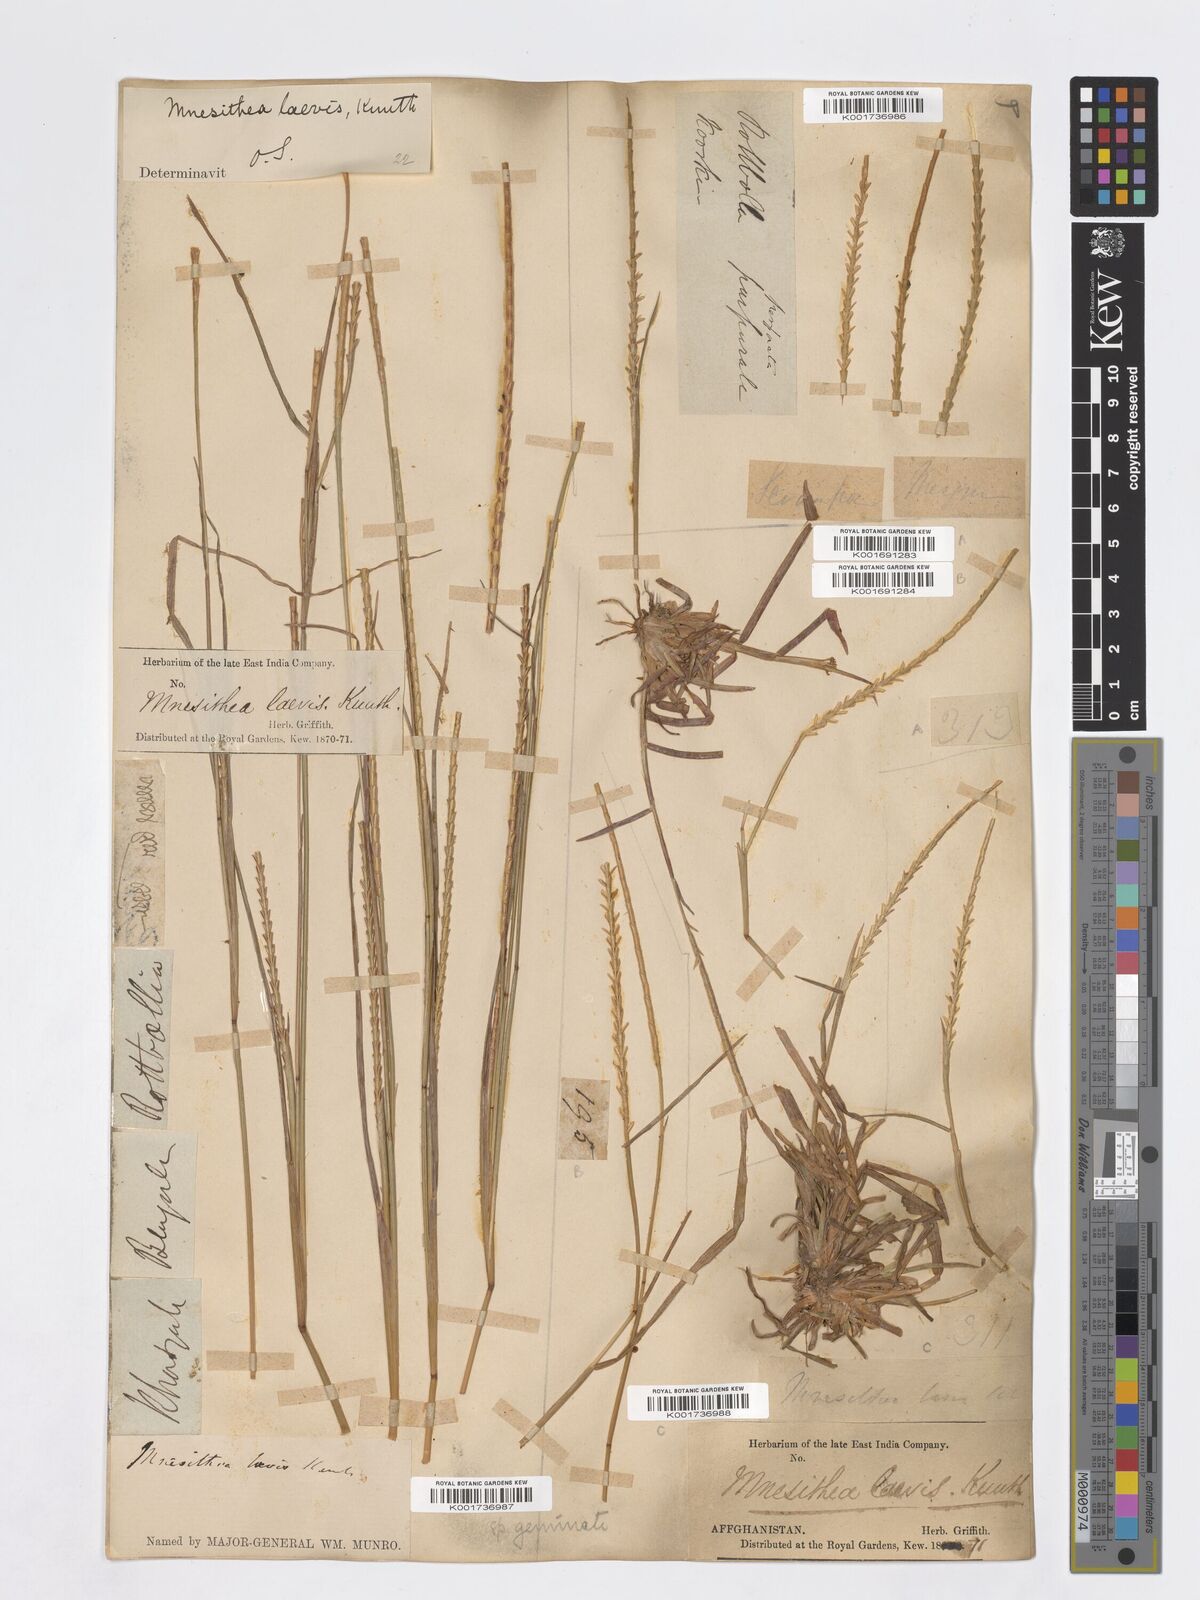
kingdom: Plantae
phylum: Tracheophyta
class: Liliopsida
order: Poales
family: Poaceae
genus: Mnesithea
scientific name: Mnesithea laevis
